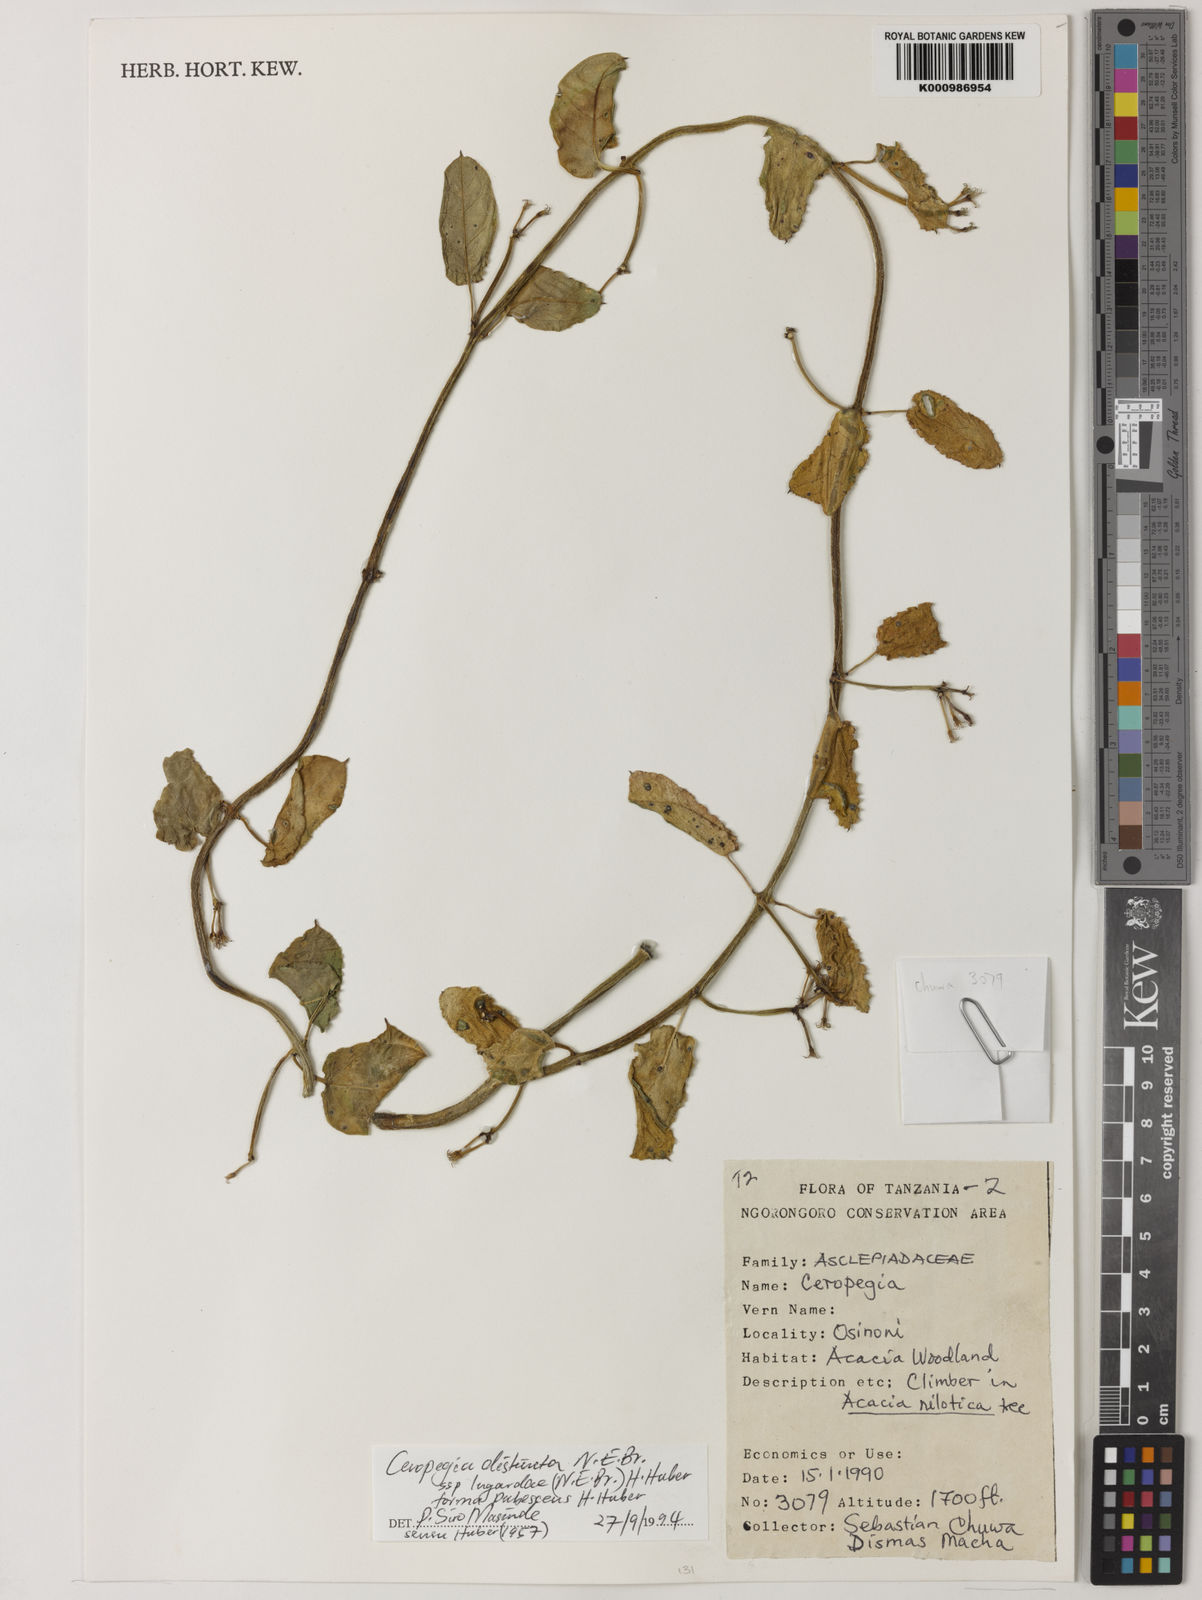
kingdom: Plantae
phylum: Tracheophyta
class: Magnoliopsida
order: Gentianales
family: Apocynaceae
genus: Ceropegia
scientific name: Ceropegia lugardiae
